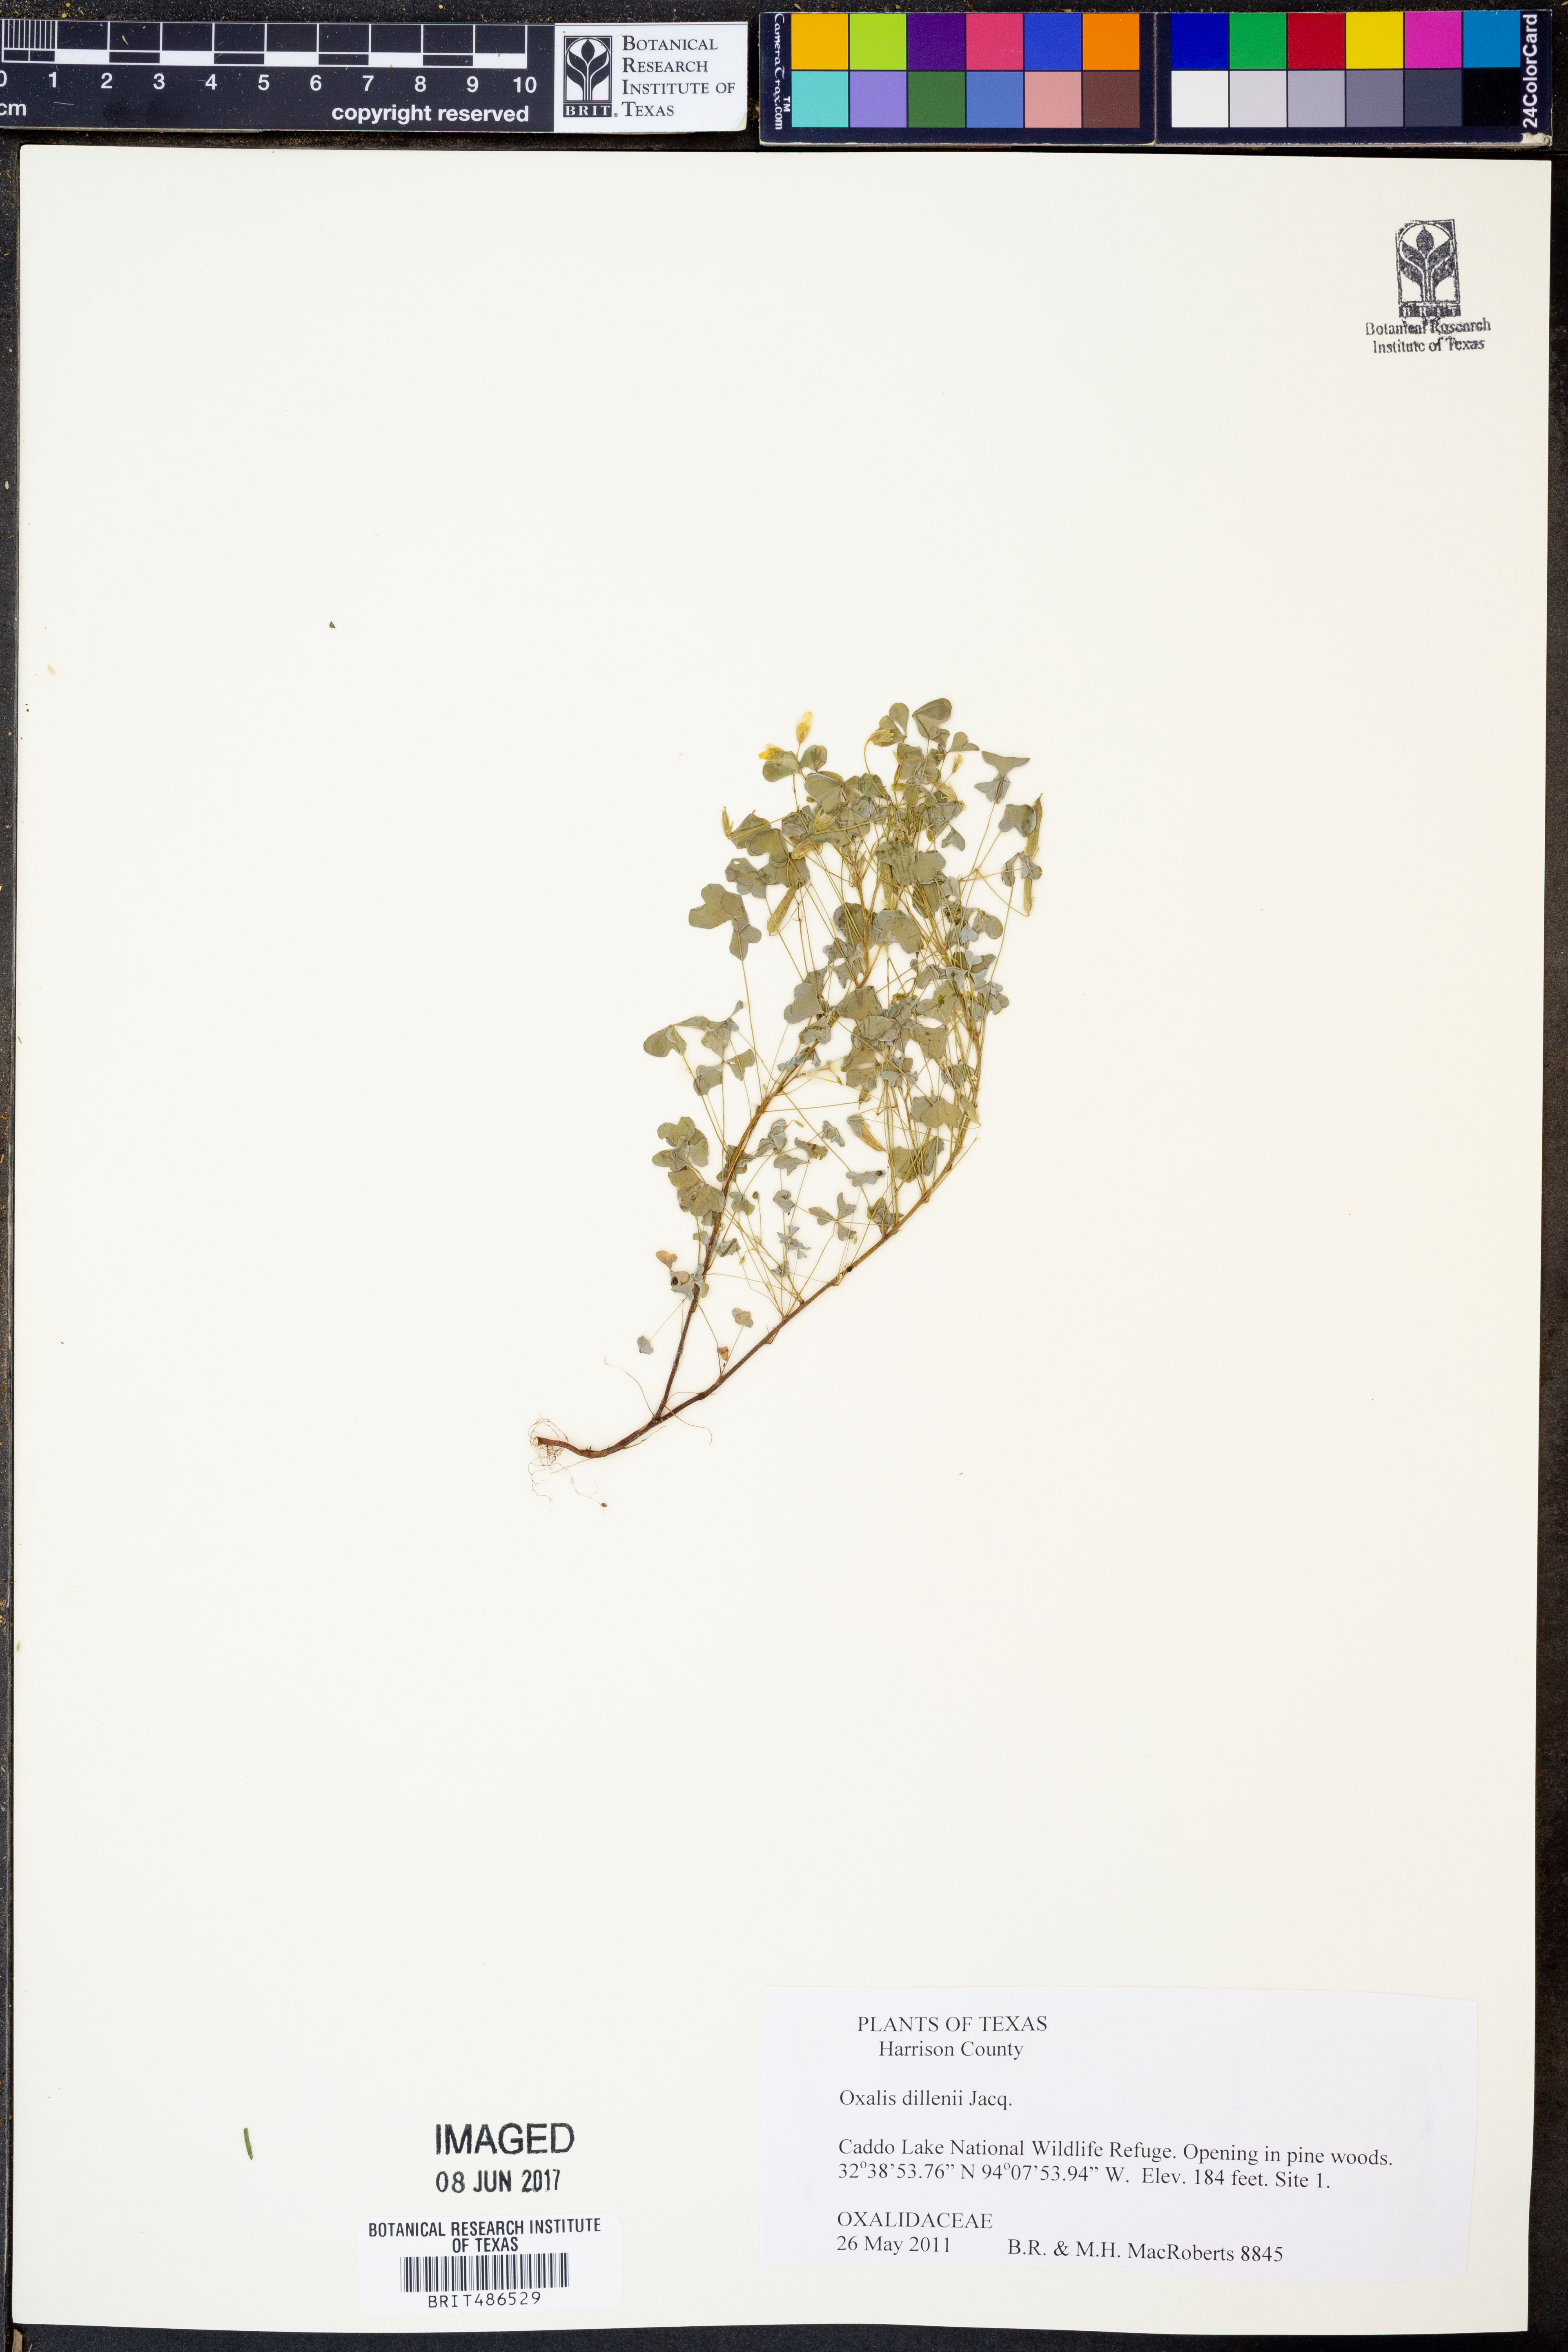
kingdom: Plantae
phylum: Tracheophyta
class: Magnoliopsida
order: Oxalidales
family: Oxalidaceae
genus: Oxalis
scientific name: Oxalis dillenii
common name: Sussex yellow-sorrel
